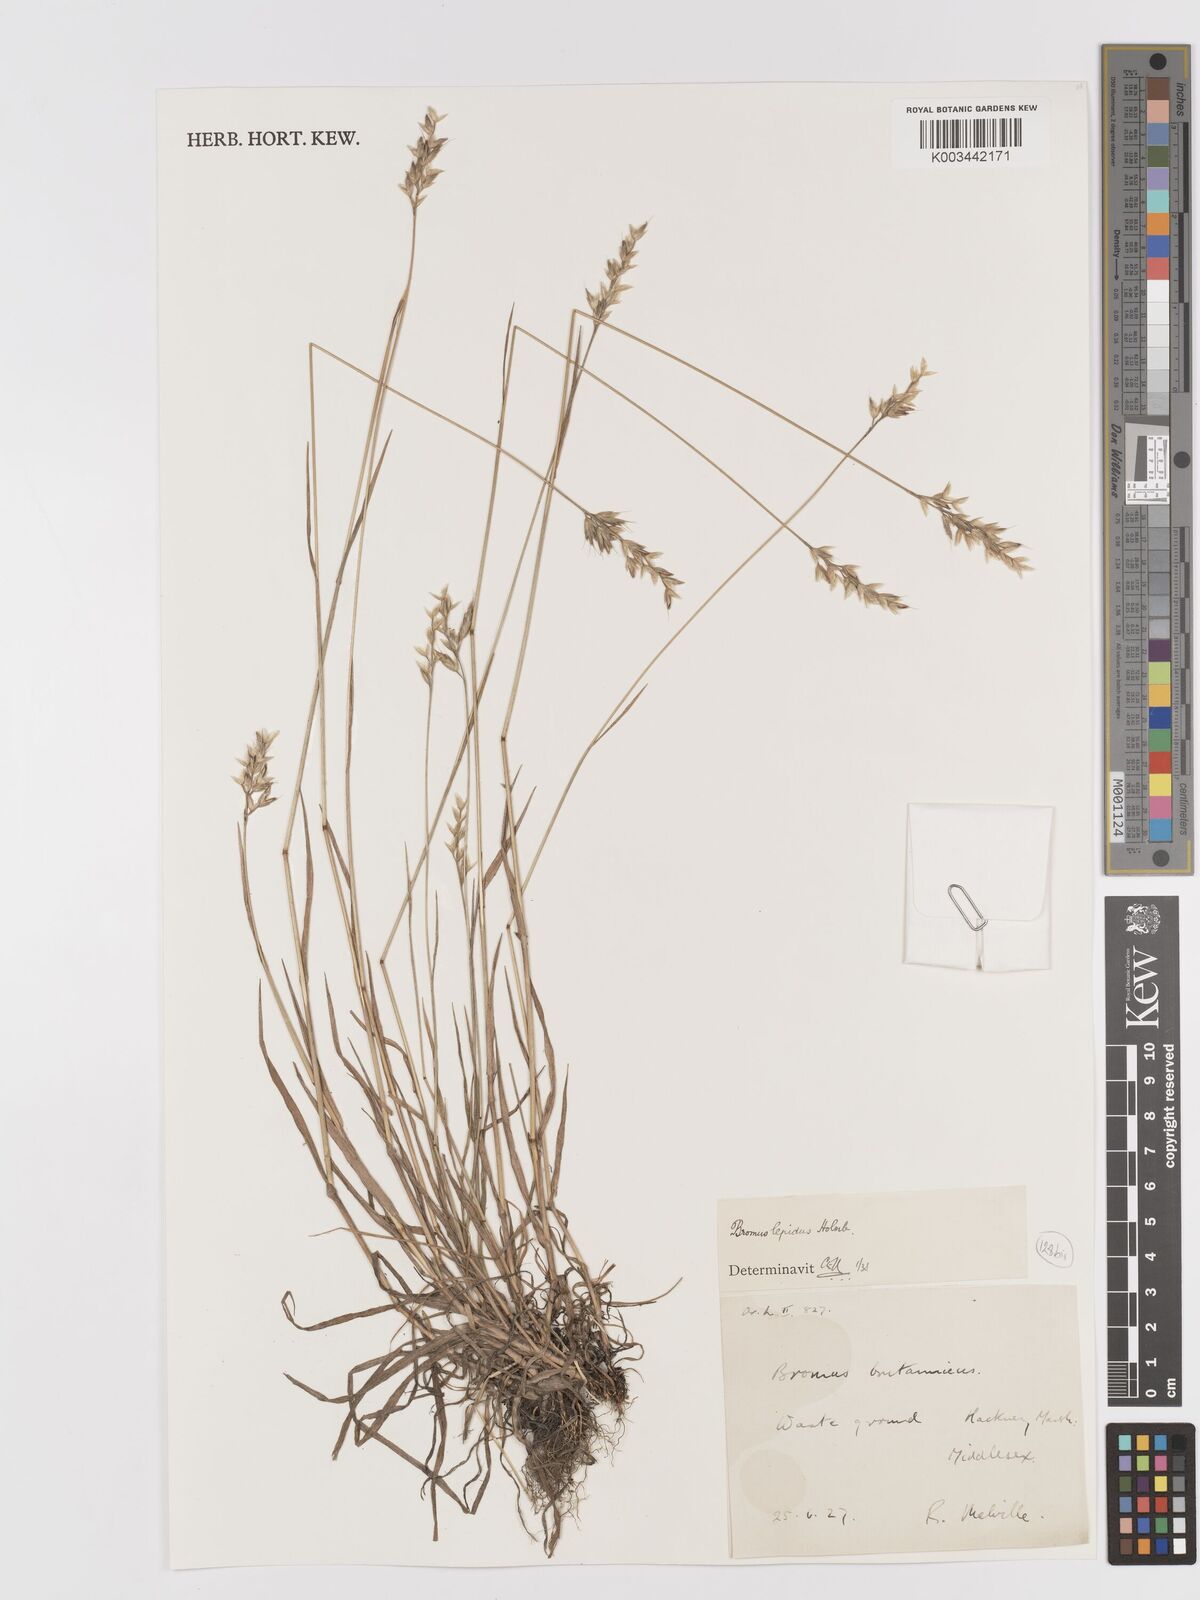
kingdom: Plantae
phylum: Tracheophyta
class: Liliopsida
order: Poales
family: Poaceae
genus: Bromus
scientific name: Bromus lepidus
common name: Slender soft-brome
